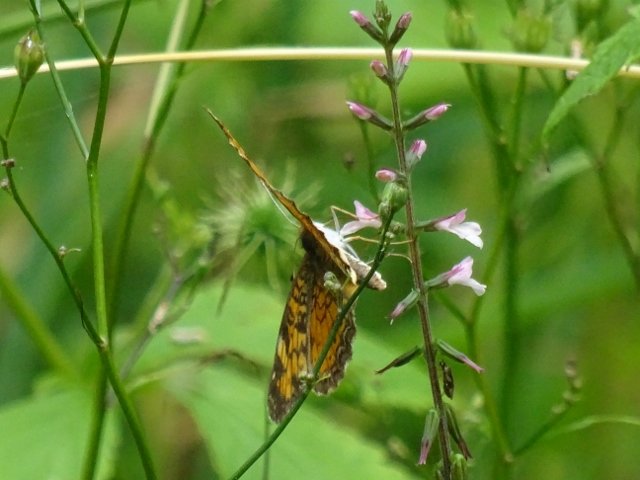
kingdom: Animalia
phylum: Arthropoda
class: Insecta
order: Lepidoptera
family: Nymphalidae
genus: Phyciodes
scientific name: Phyciodes
